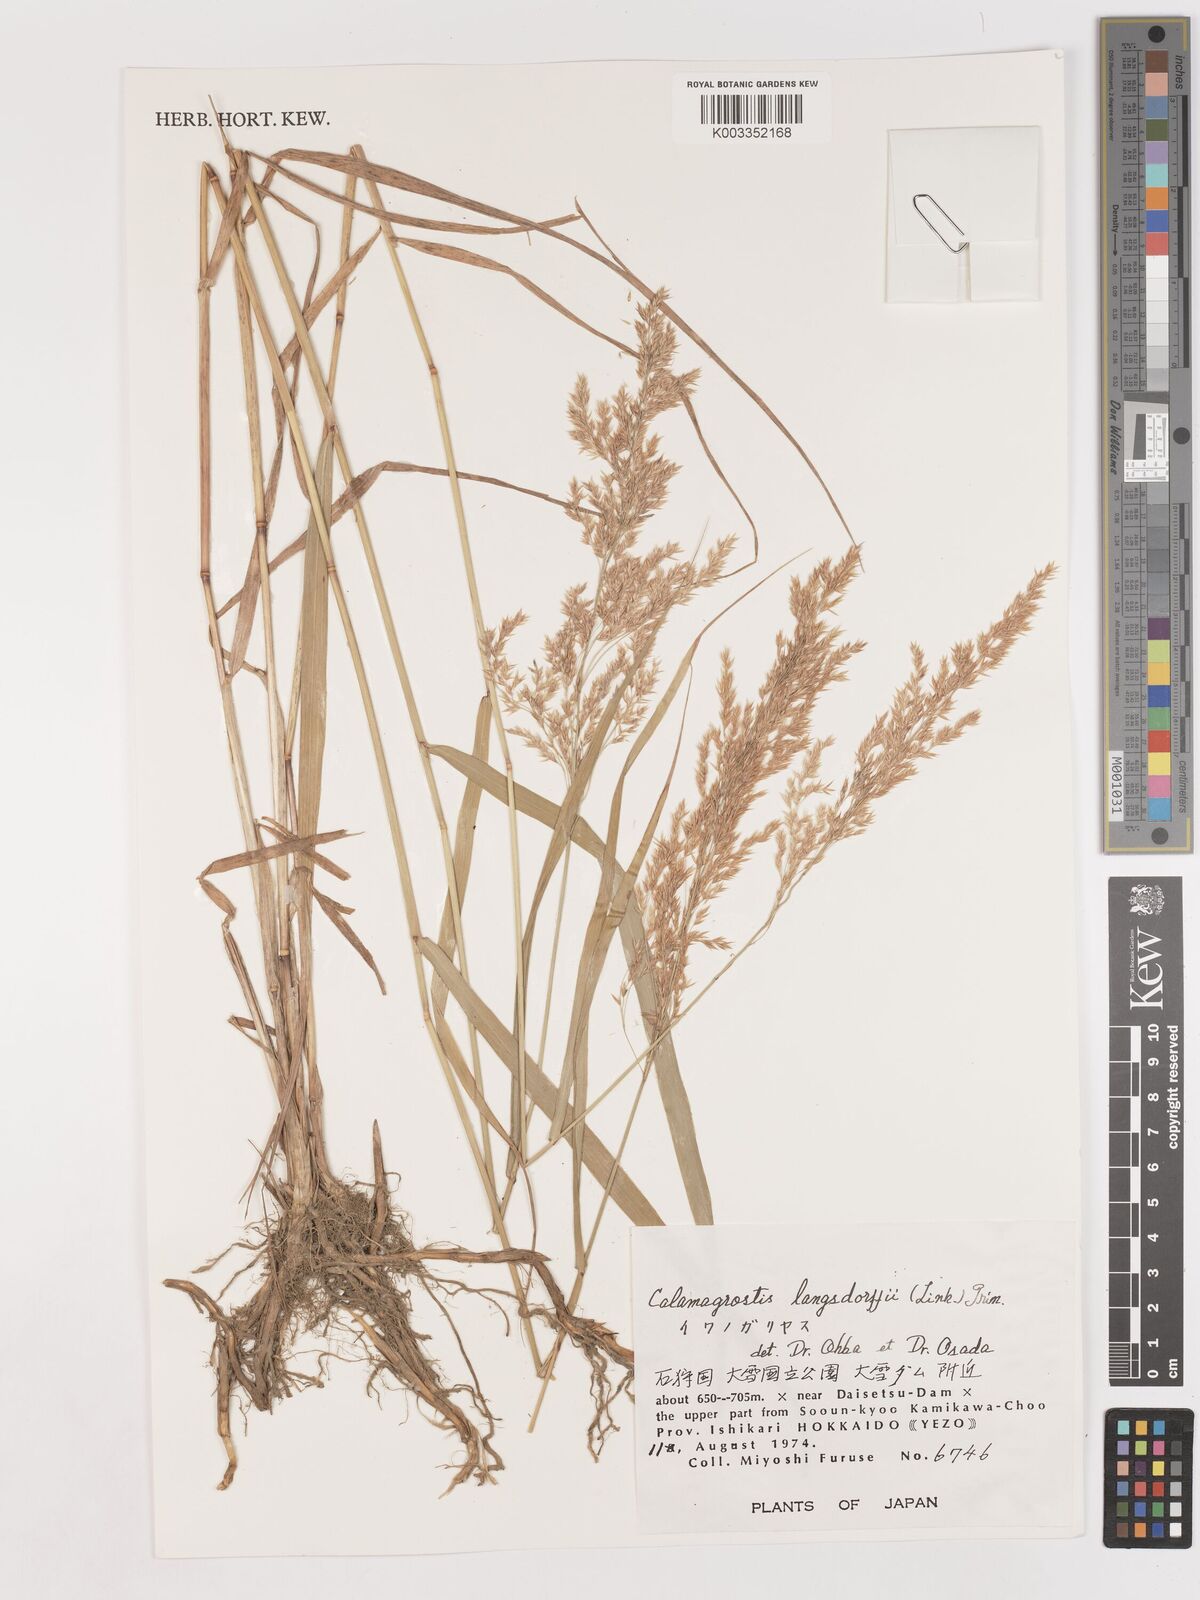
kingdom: Plantae
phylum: Tracheophyta
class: Liliopsida
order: Poales
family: Poaceae
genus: Calamagrostis
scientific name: Calamagrostis purpurea
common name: Scandinavian small-reed
